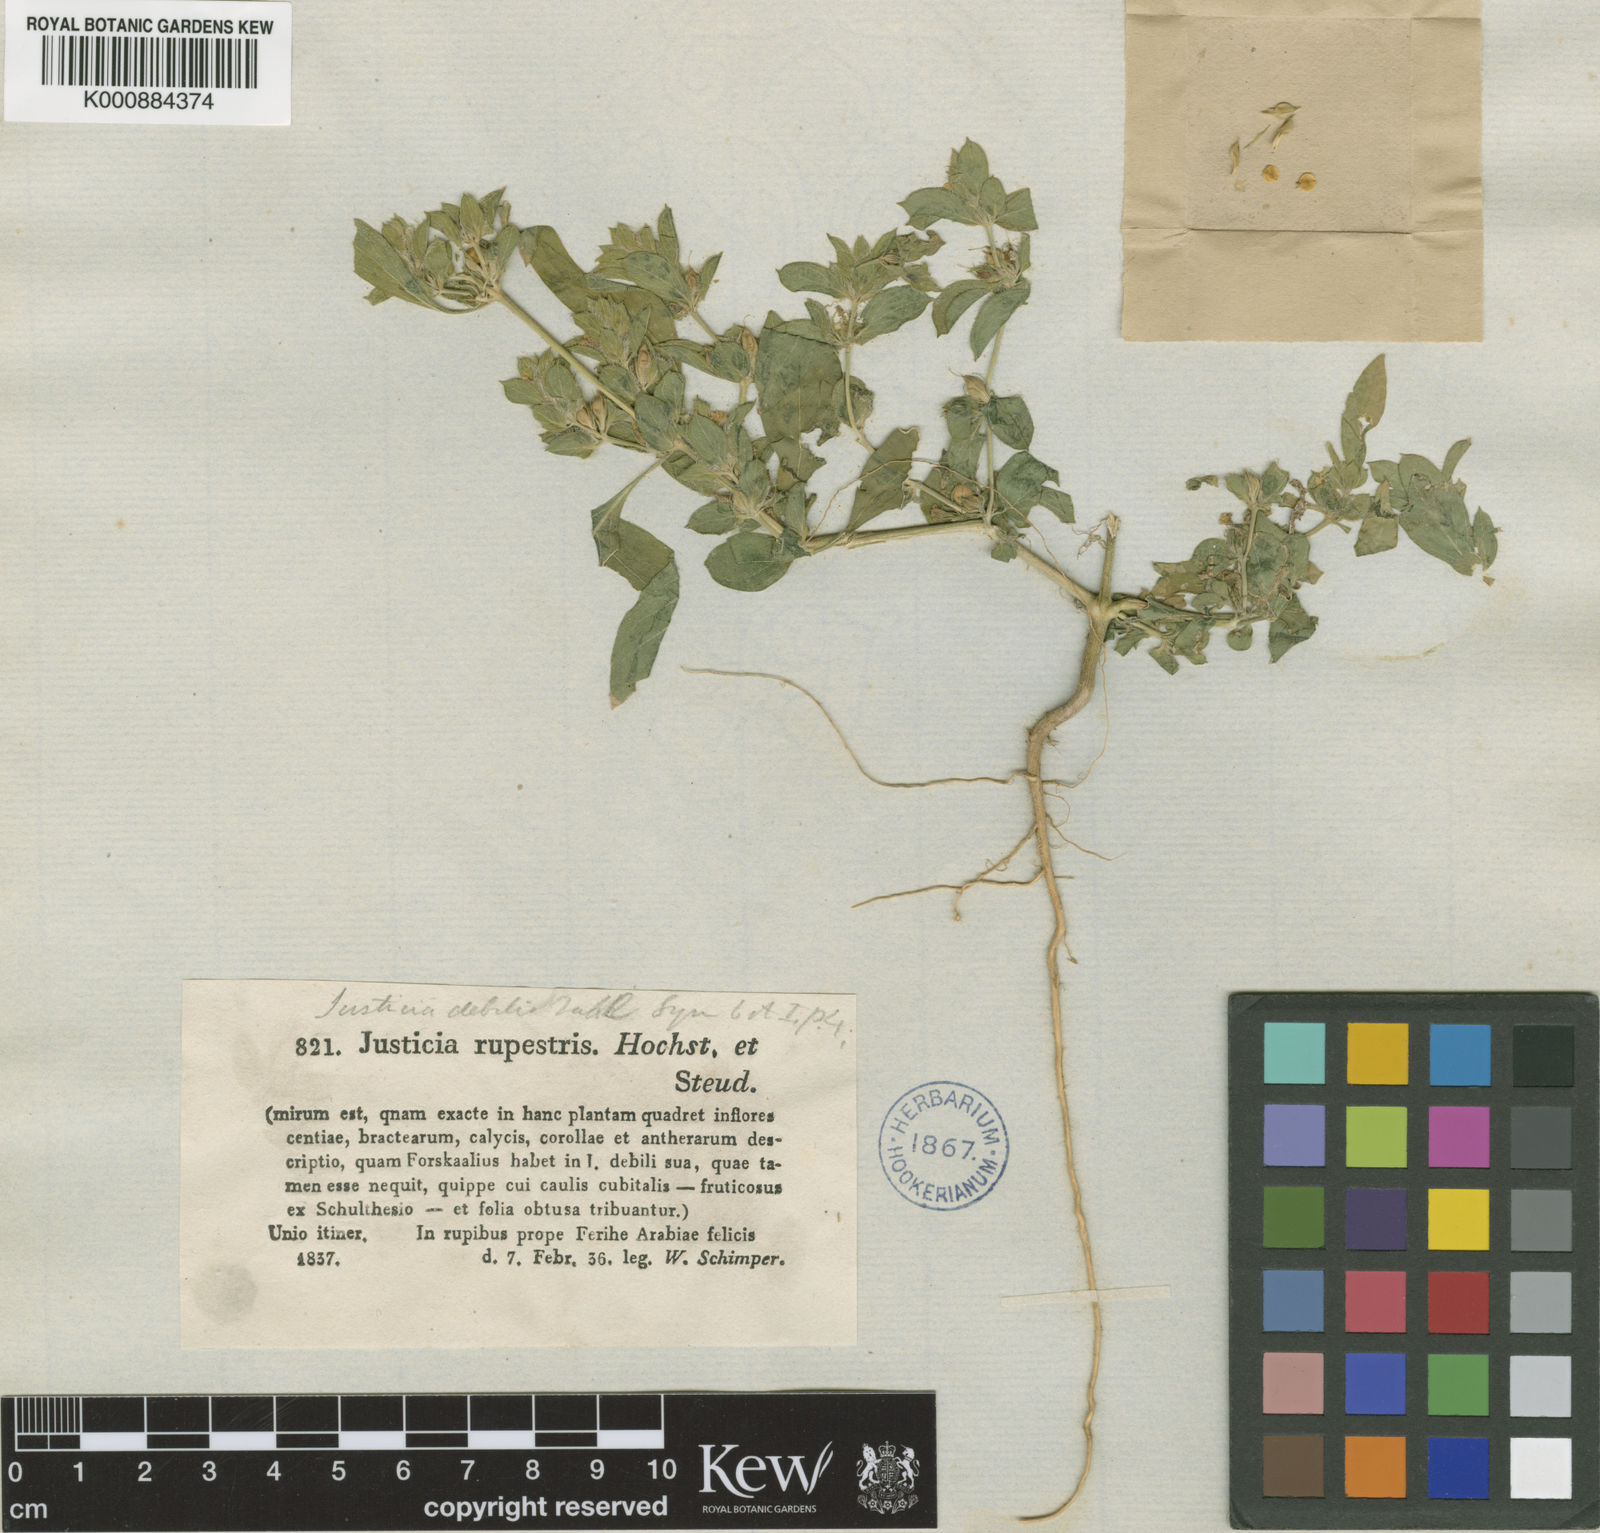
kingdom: Plantae
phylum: Tracheophyta
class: Magnoliopsida
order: Lamiales
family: Acanthaceae
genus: Monechma
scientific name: Monechma debile
